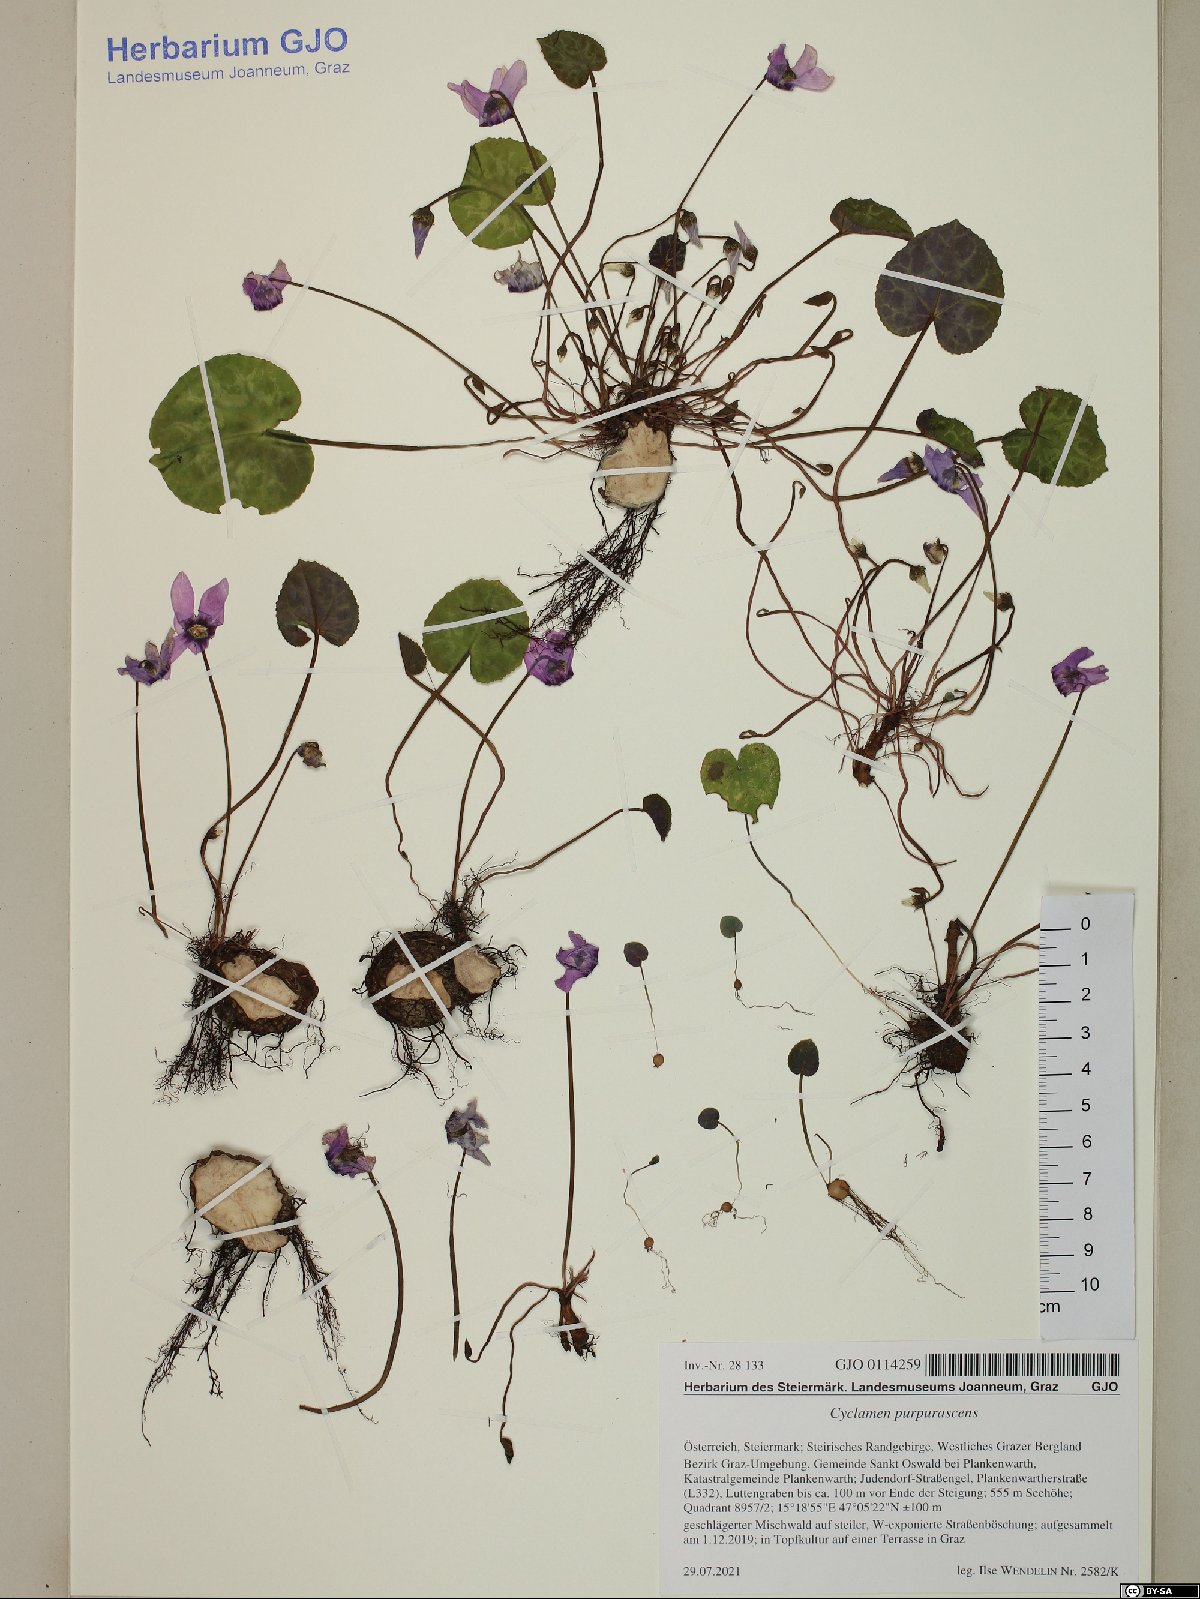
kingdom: Plantae
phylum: Tracheophyta
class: Magnoliopsida
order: Ericales
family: Primulaceae
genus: Cyclamen
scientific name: Cyclamen purpurascens
